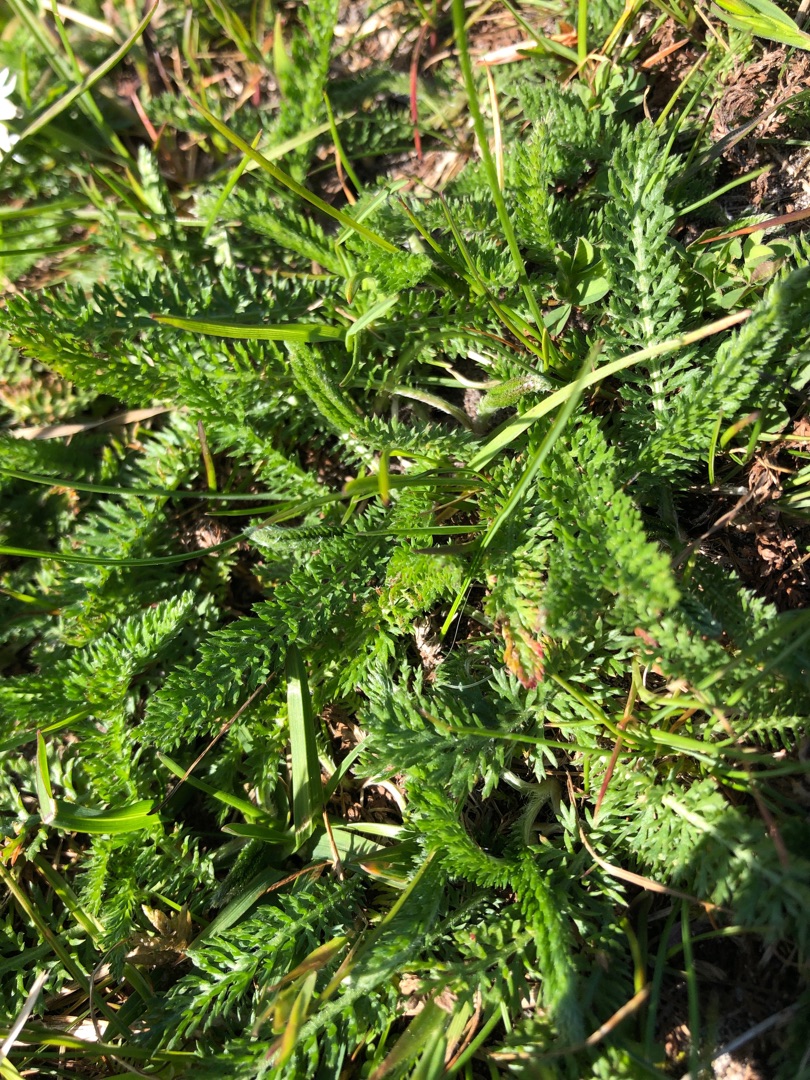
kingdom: Plantae
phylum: Tracheophyta
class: Magnoliopsida
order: Asterales
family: Asteraceae
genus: Achillea
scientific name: Achillea millefolium
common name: Almindelig røllike
